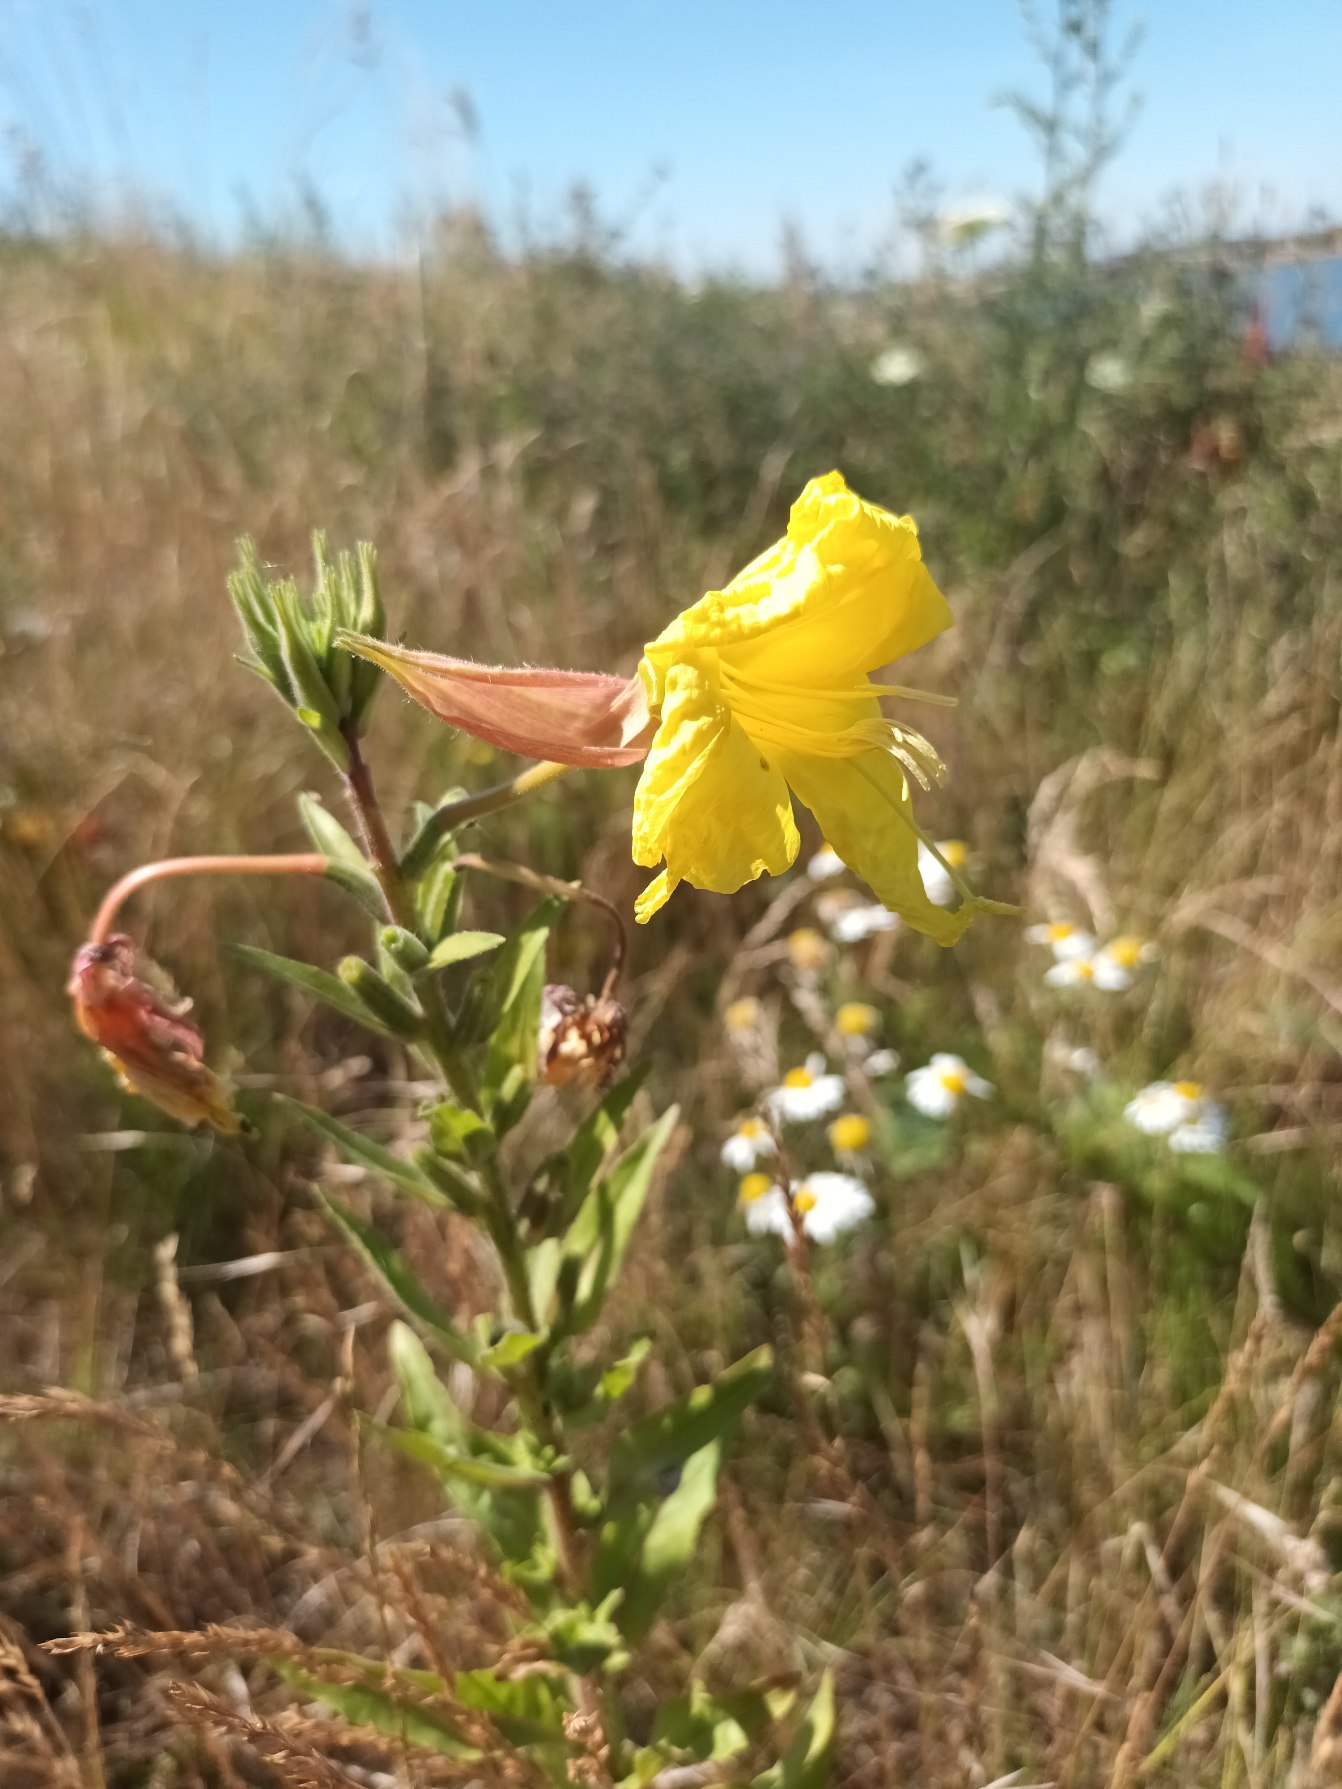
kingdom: Plantae
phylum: Tracheophyta
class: Magnoliopsida
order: Myrtales
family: Onagraceae
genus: Oenothera
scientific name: Oenothera glazioviana
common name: Kæmpe-natlys
